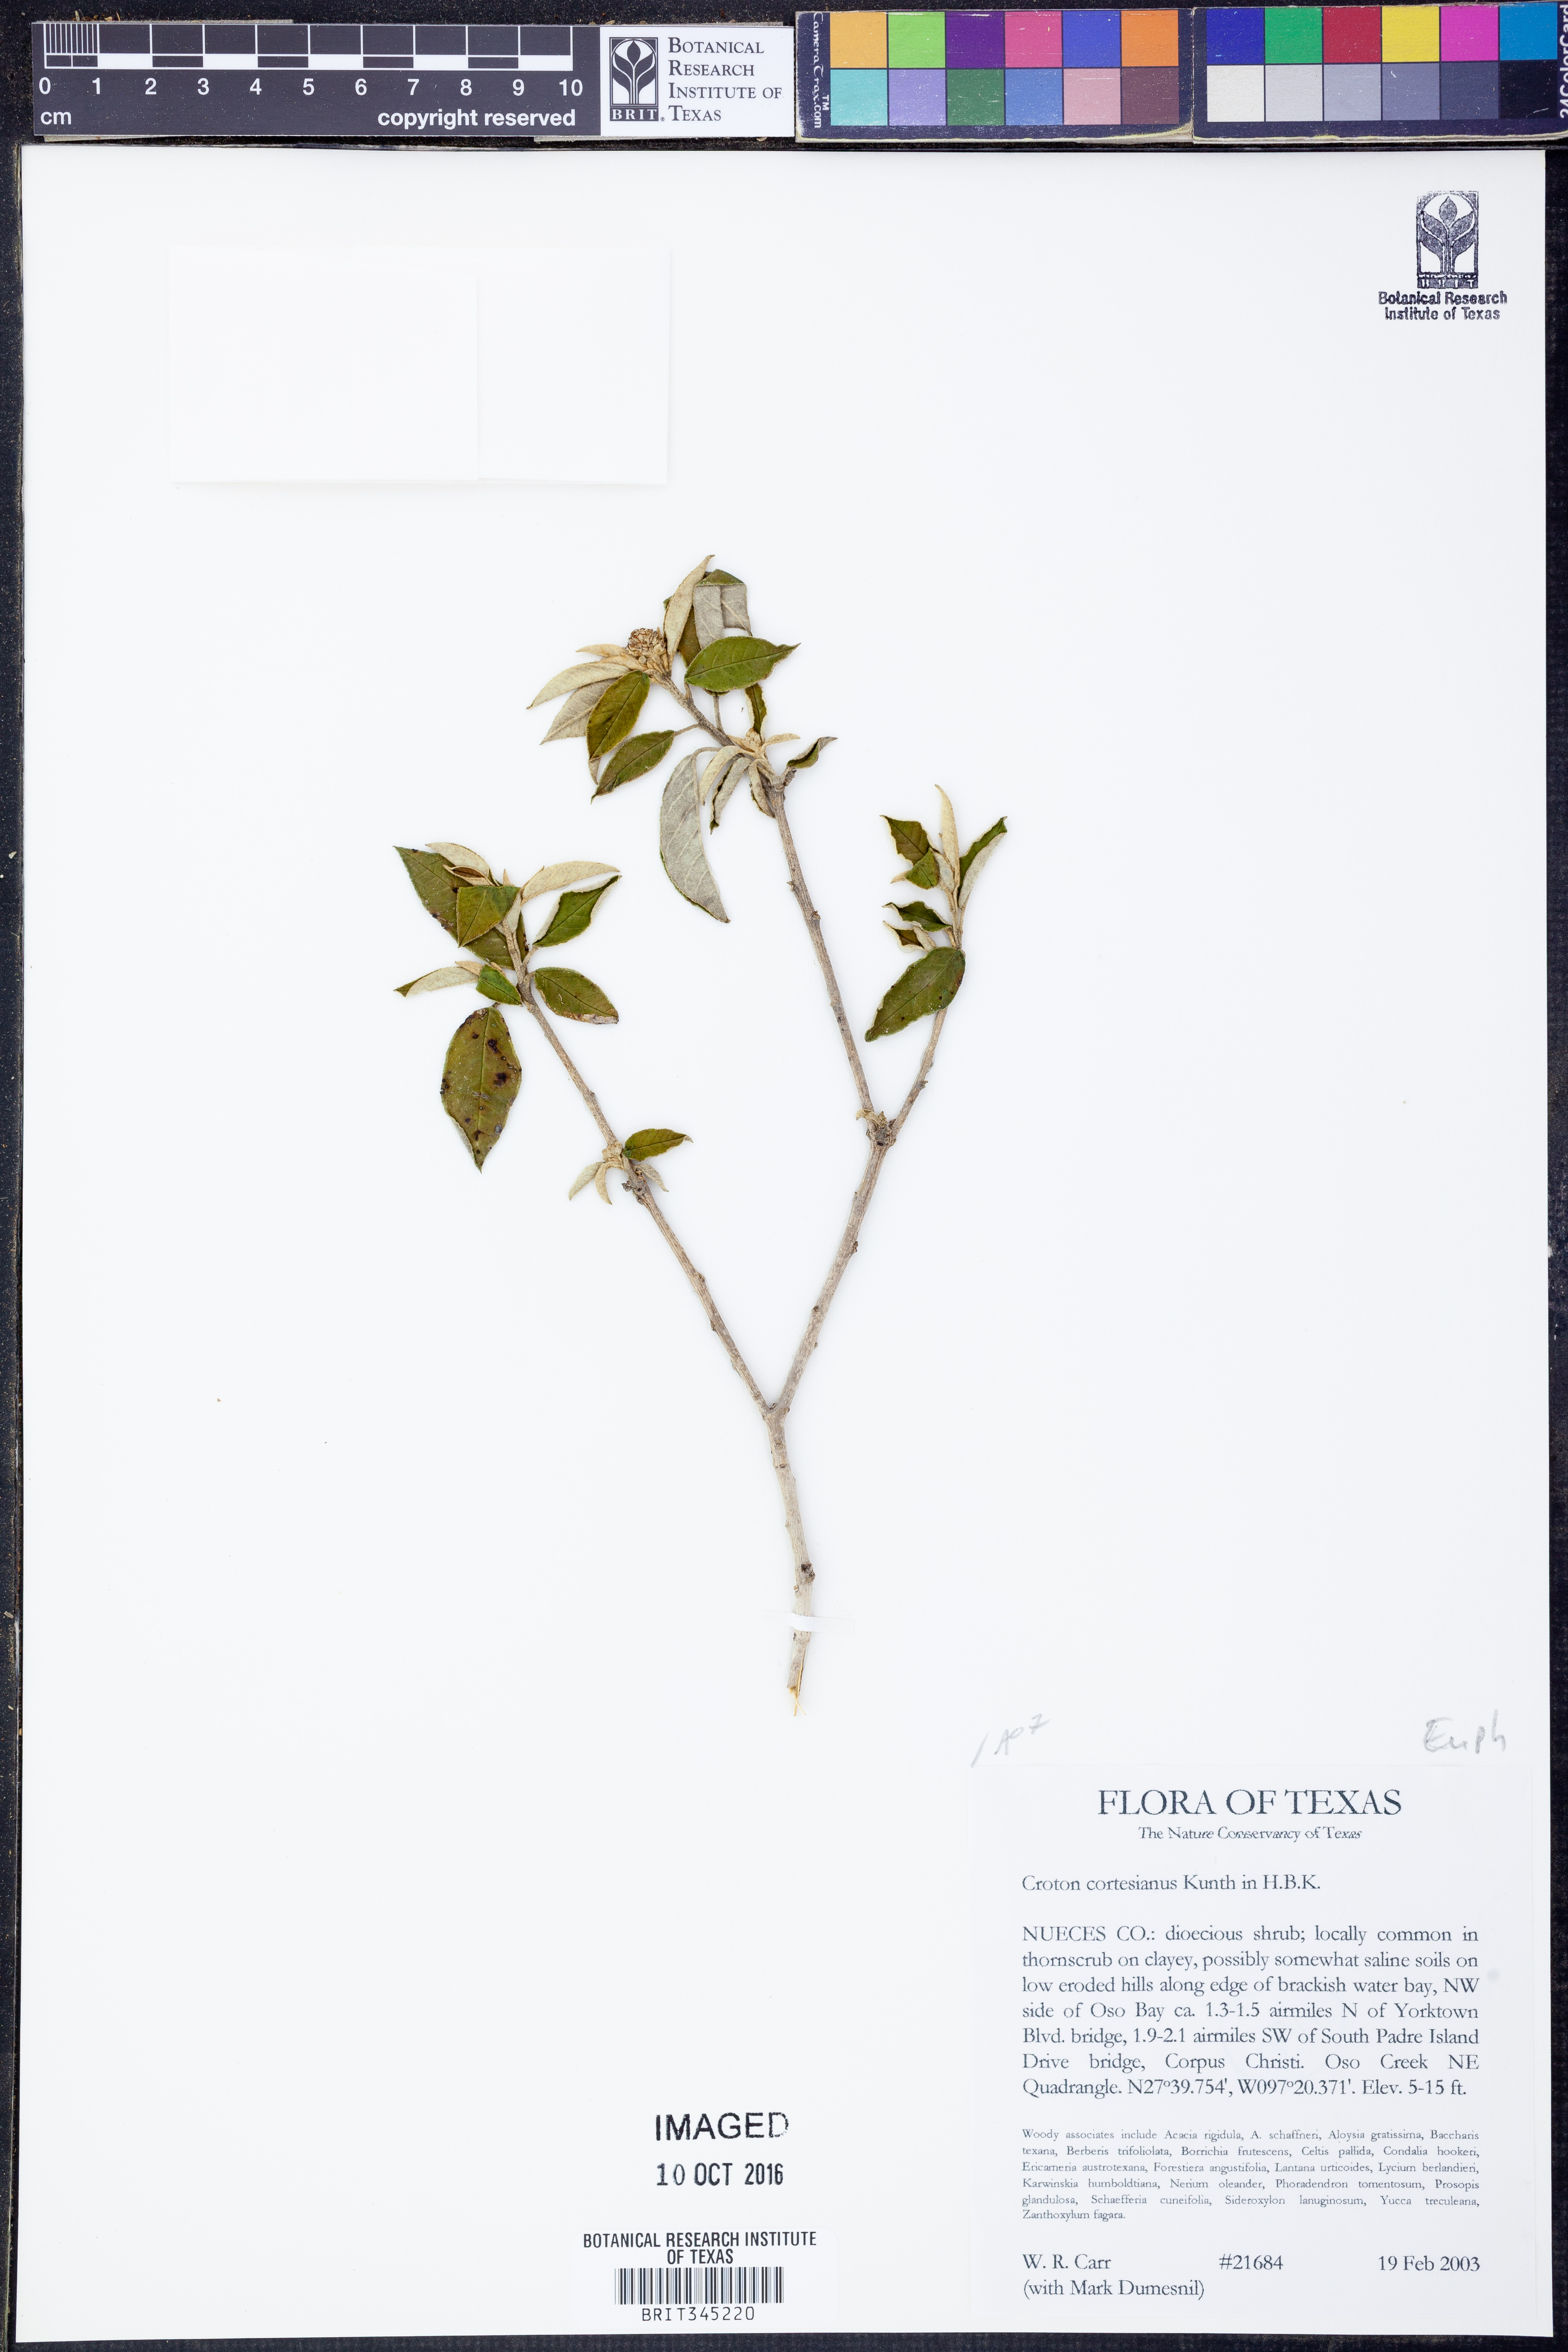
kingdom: Plantae
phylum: Tracheophyta
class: Magnoliopsida
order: Malpighiales
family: Euphorbiaceae
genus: Croton
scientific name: Croton cortesianus
